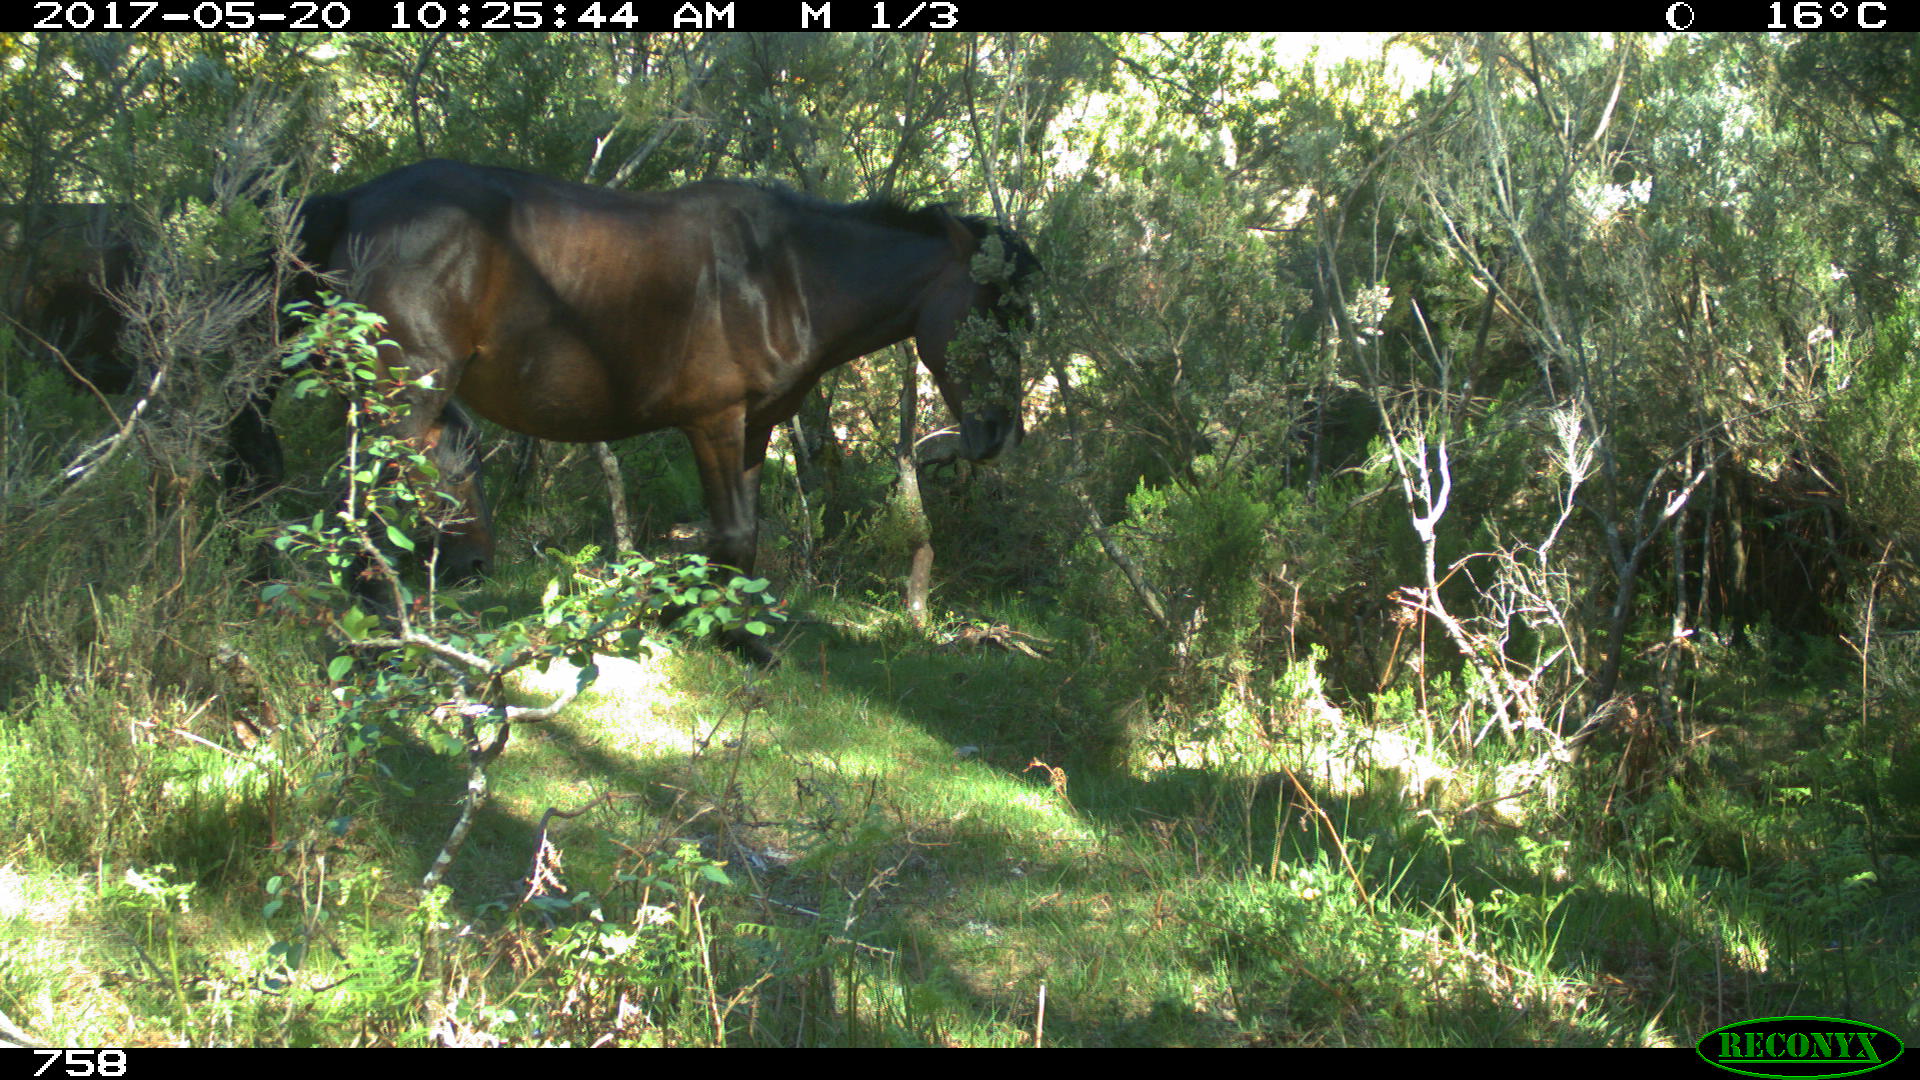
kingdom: Animalia
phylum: Chordata
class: Mammalia
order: Perissodactyla
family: Equidae
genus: Equus
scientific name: Equus caballus
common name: Horse
